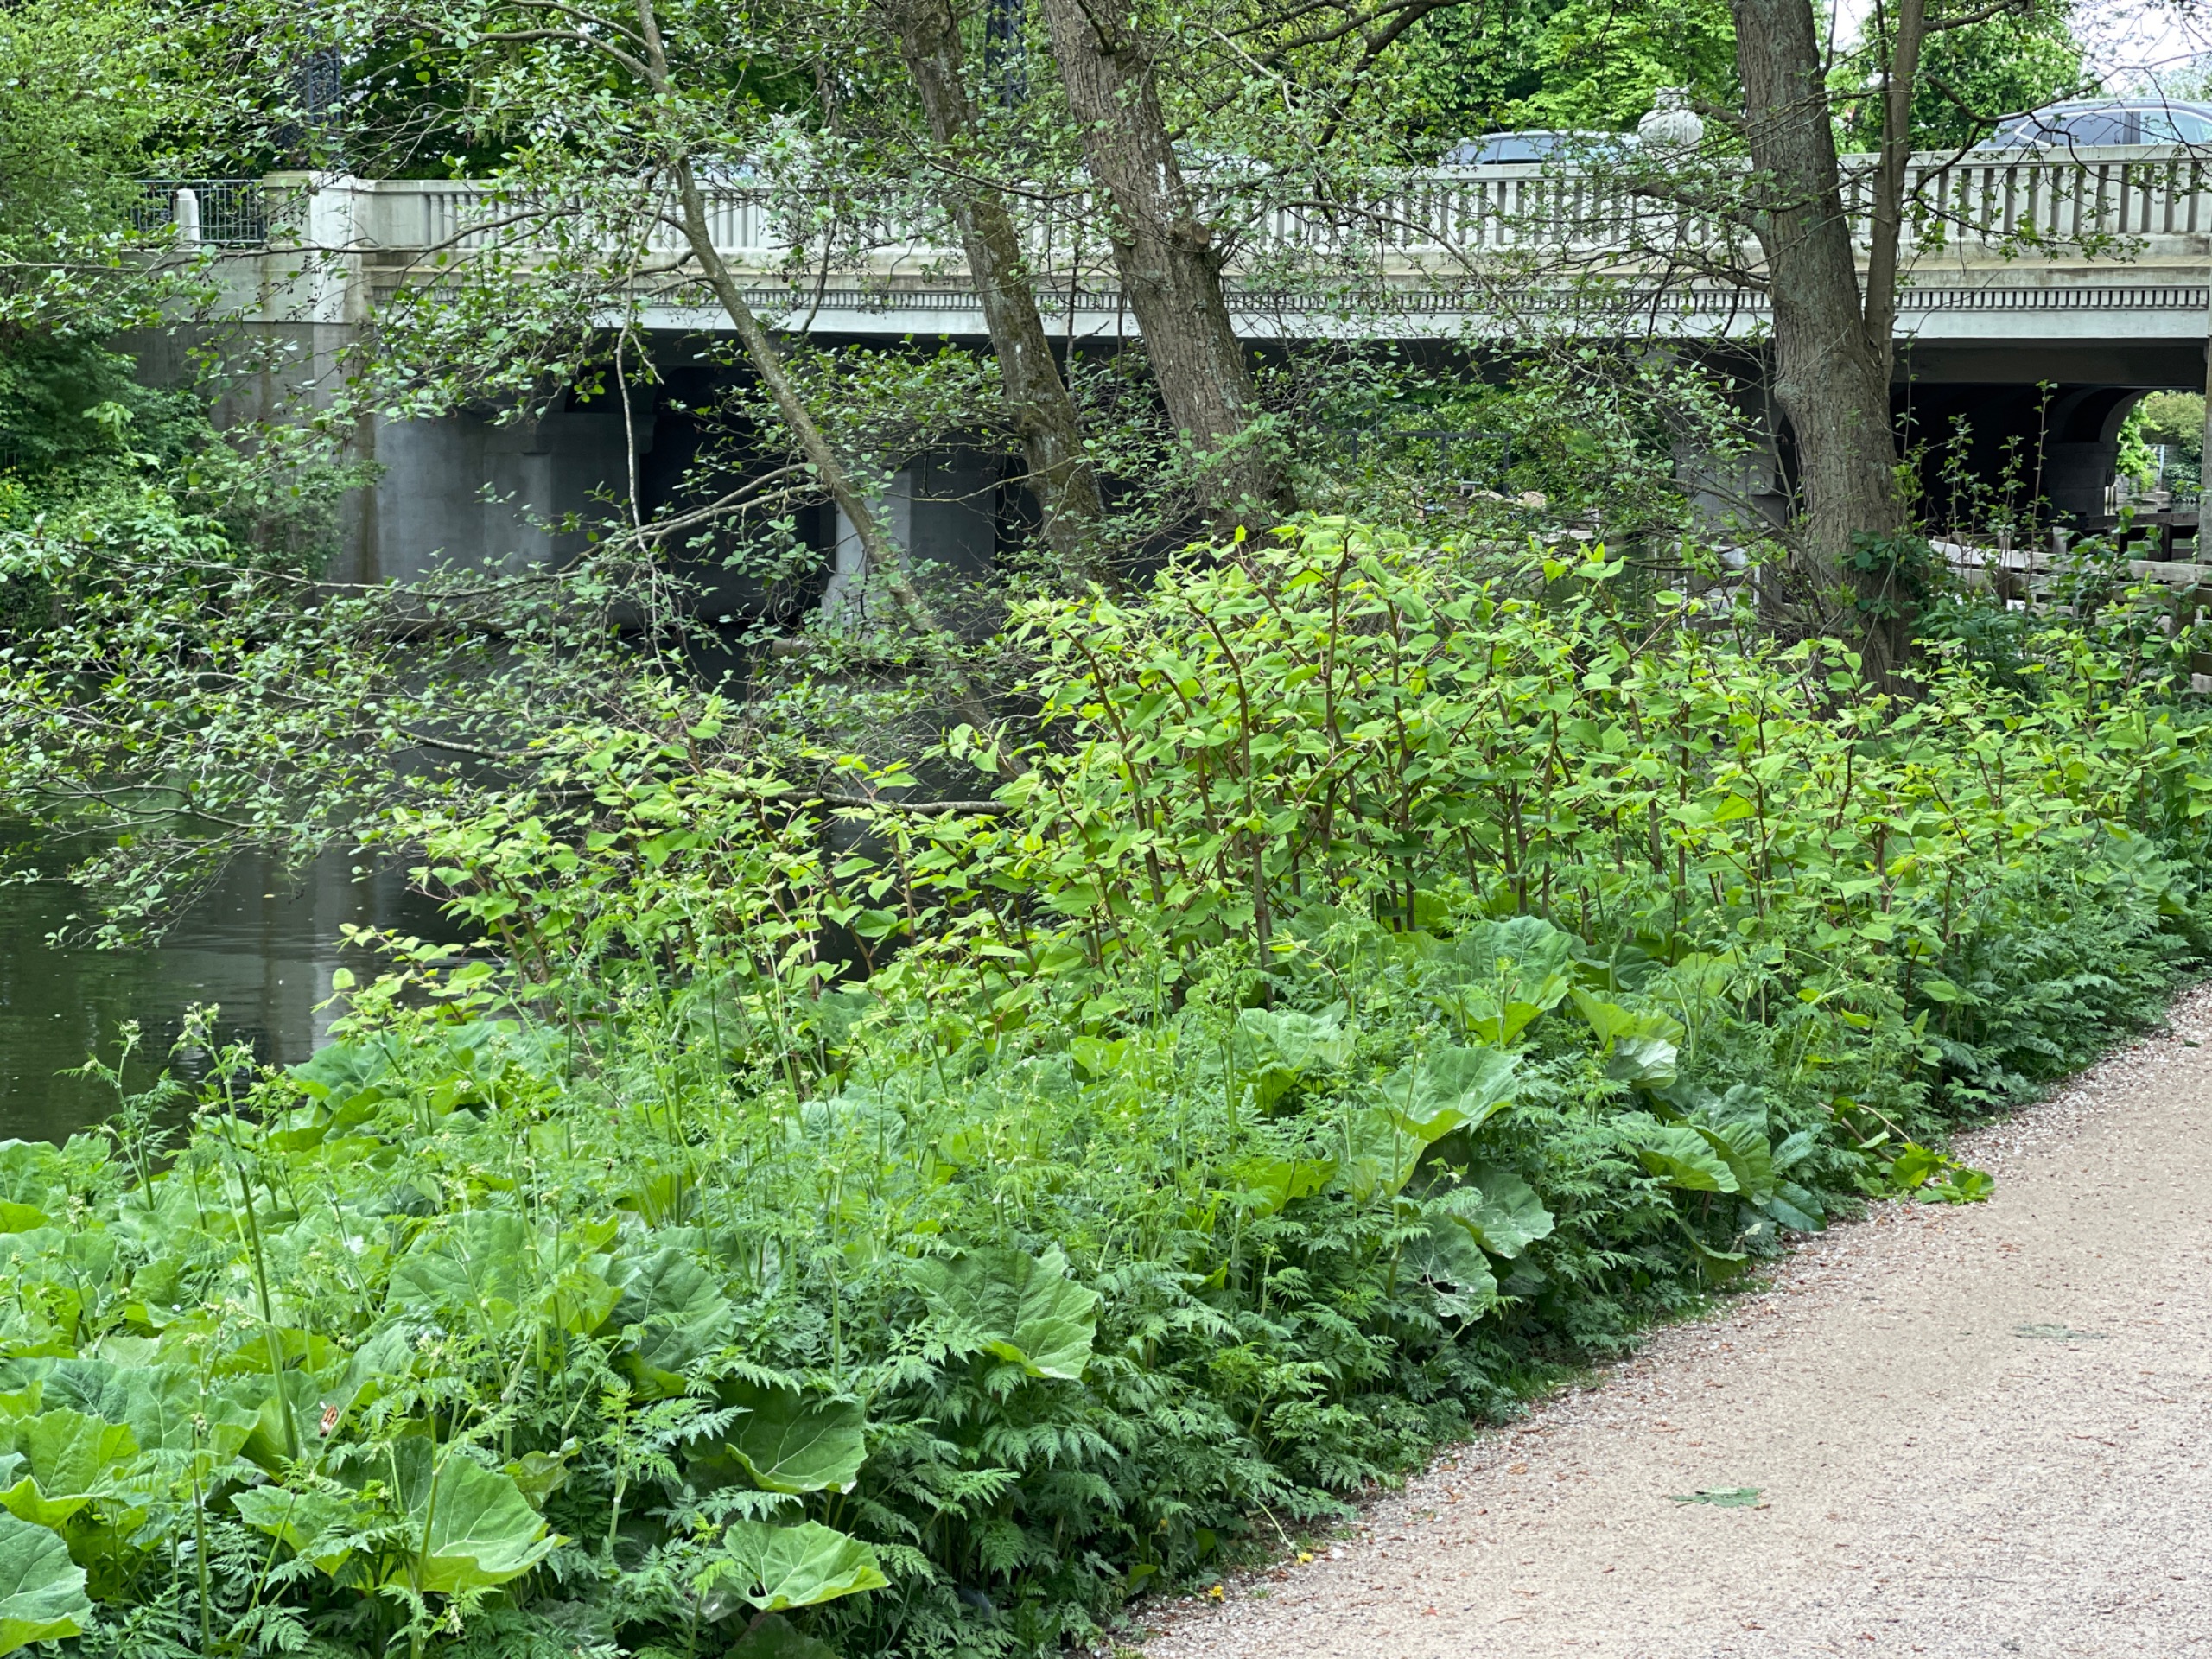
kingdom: Plantae
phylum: Tracheophyta
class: Magnoliopsida
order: Caryophyllales
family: Polygonaceae
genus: Reynoutria
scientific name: Reynoutria japonica
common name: Japan-pileurt
